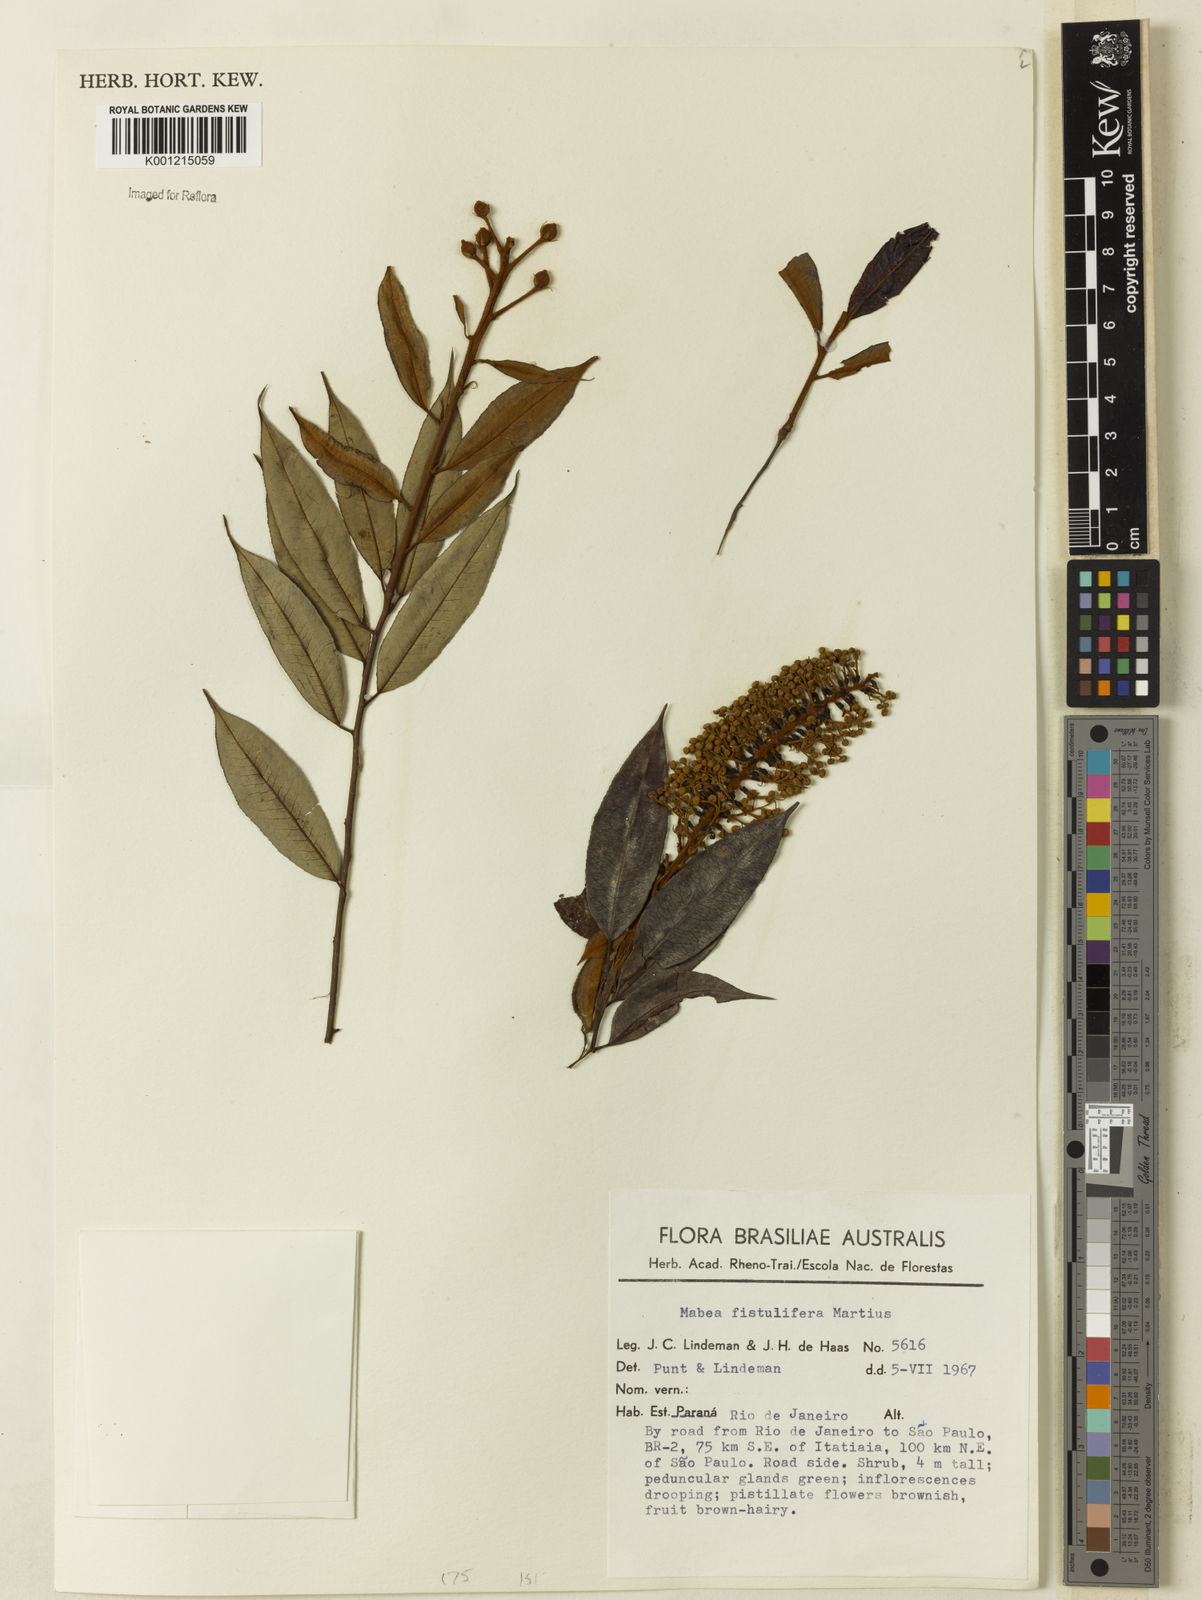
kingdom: Plantae
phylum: Tracheophyta
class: Magnoliopsida
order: Malpighiales
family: Euphorbiaceae
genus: Mabea
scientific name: Mabea fistulifera
